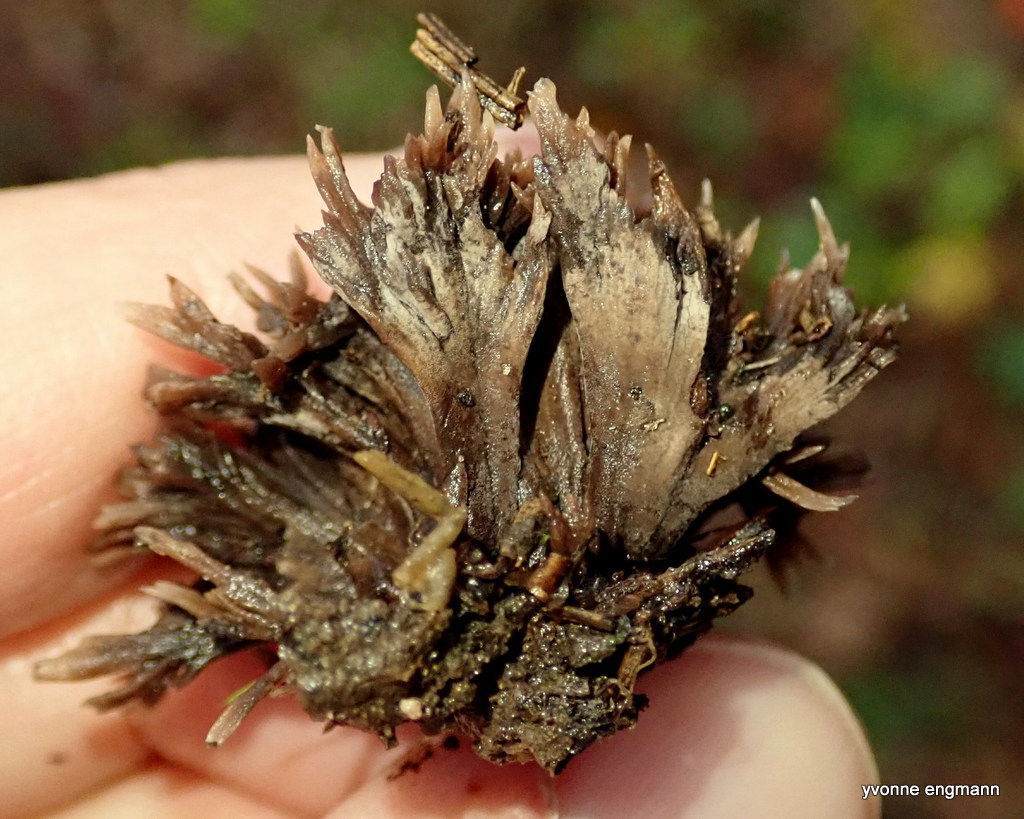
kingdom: Fungi
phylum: Basidiomycota
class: Agaricomycetes
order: Thelephorales
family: Thelephoraceae
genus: Thelephora
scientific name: Thelephora palmata
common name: grenet frynsesvamp
